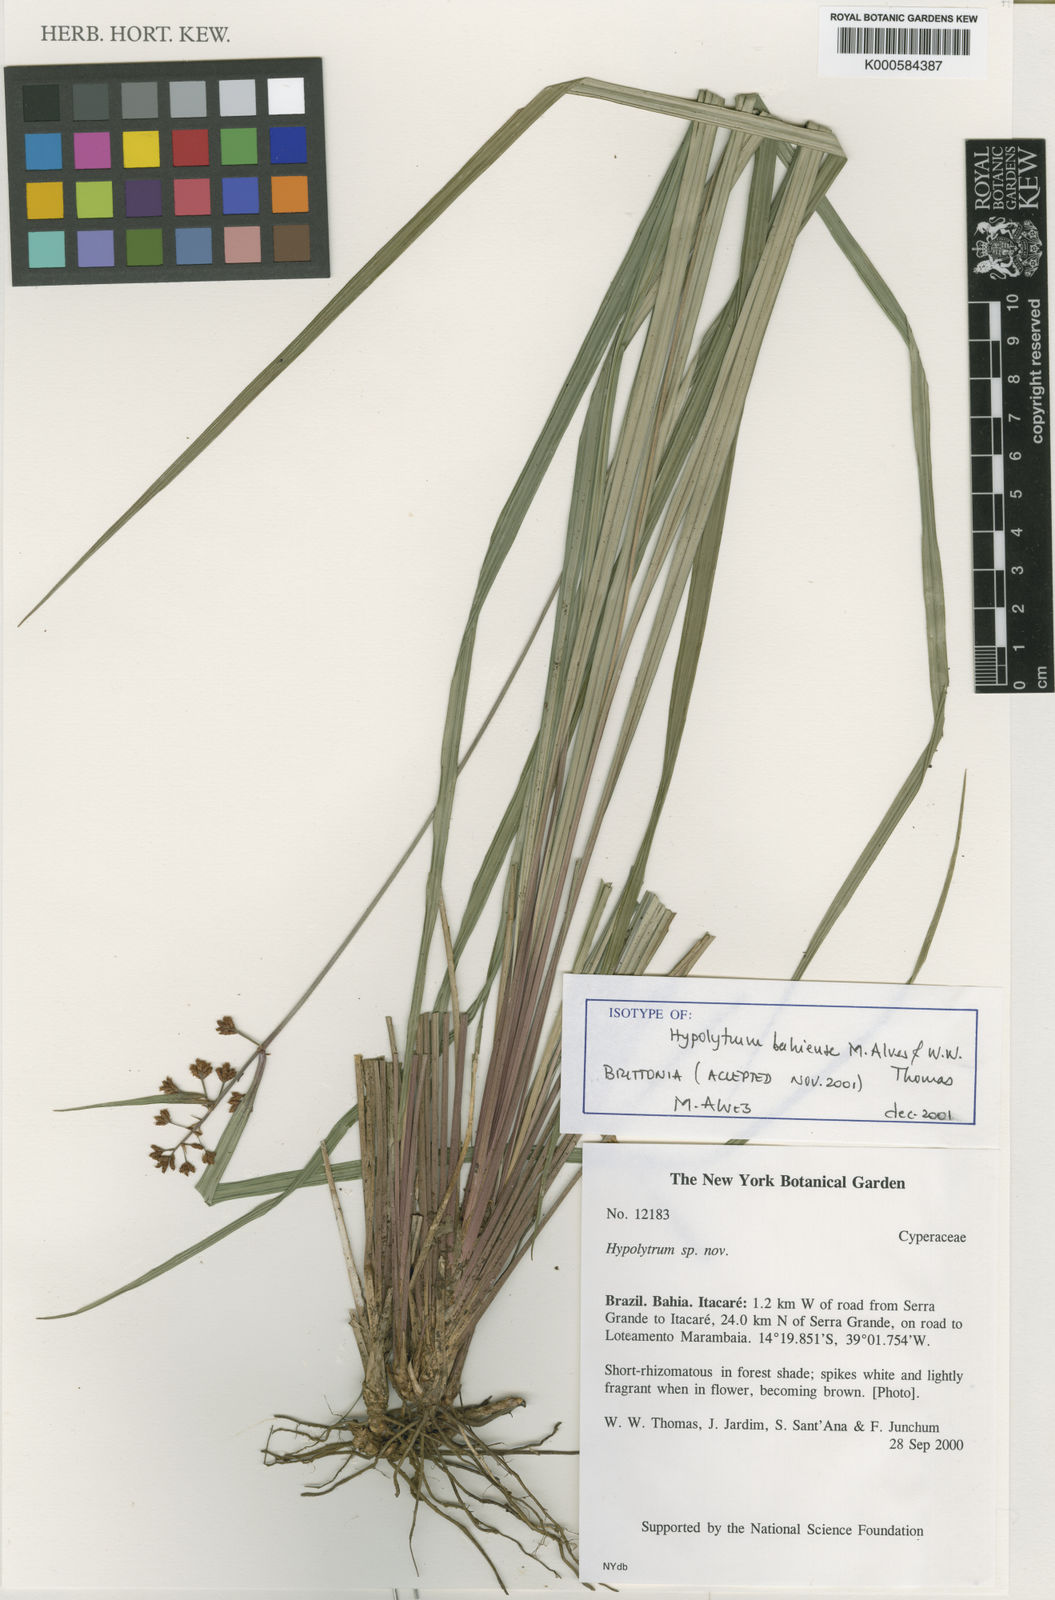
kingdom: Plantae
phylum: Tracheophyta
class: Liliopsida
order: Poales
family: Cyperaceae
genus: Hypolytrum
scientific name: Hypolytrum bahiense
